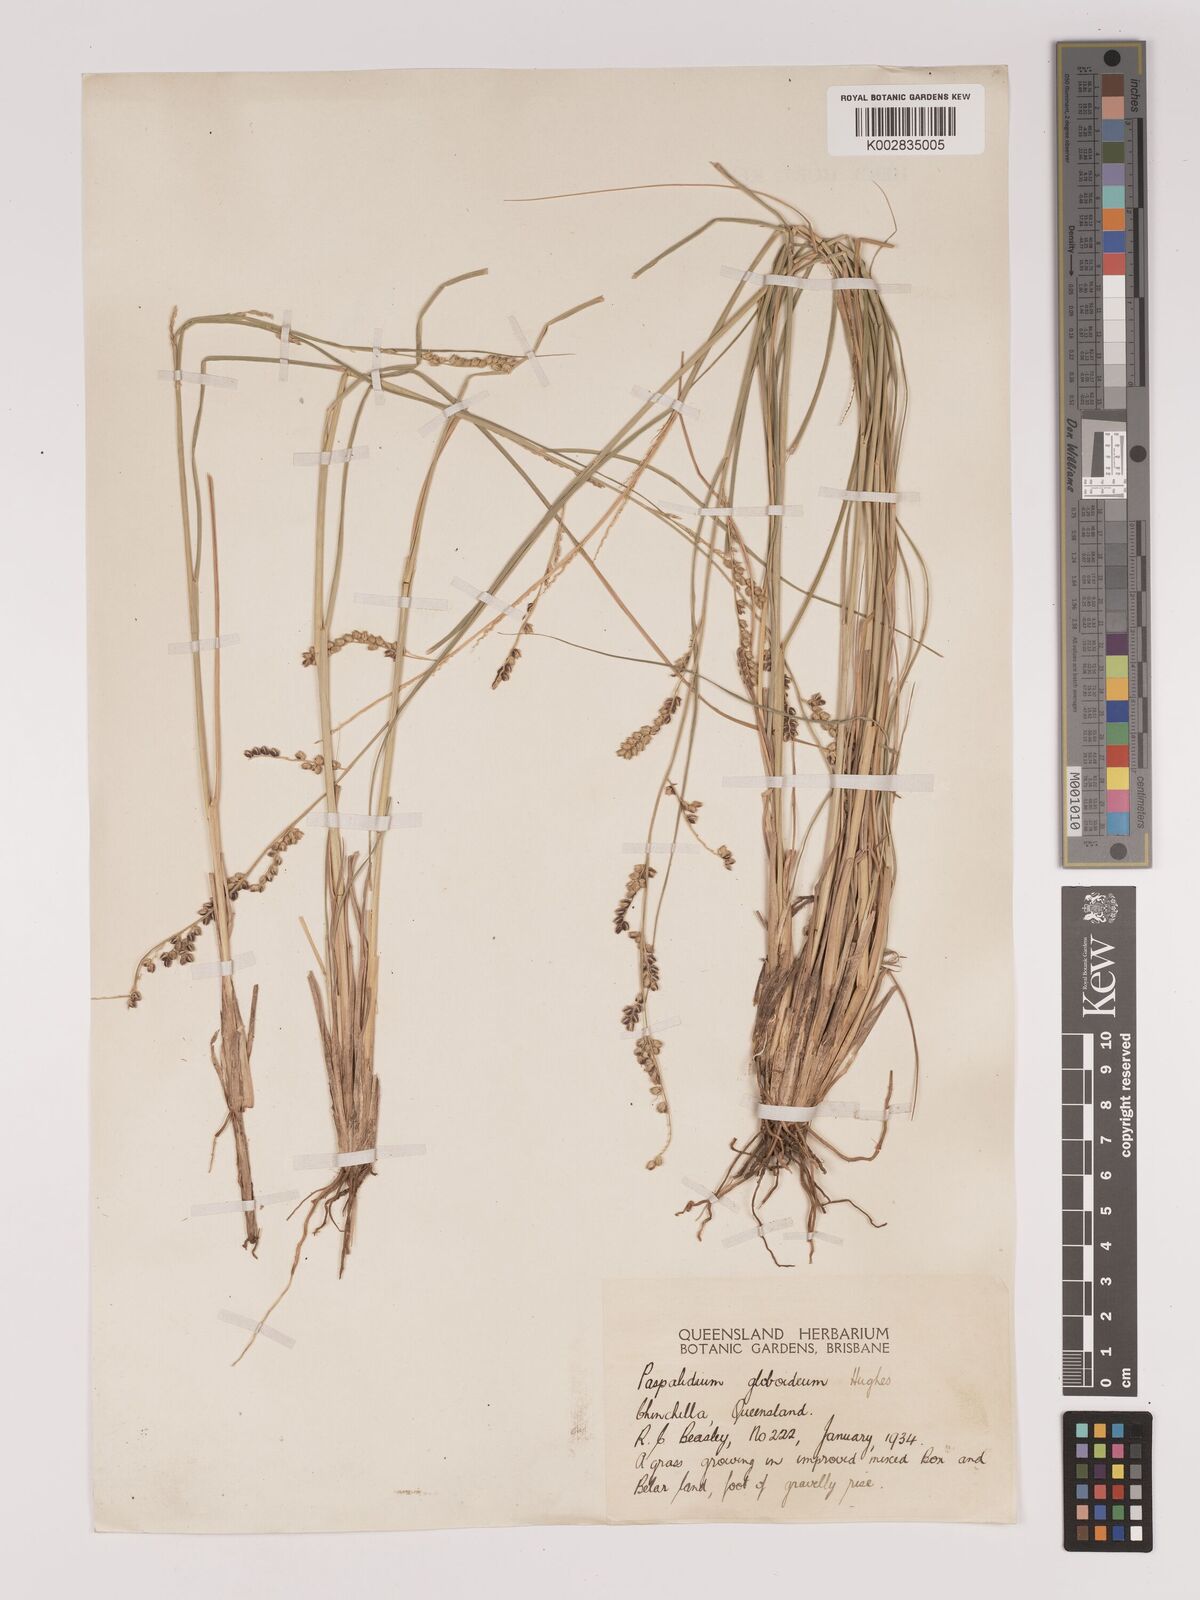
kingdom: Plantae
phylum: Tracheophyta
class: Liliopsida
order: Poales
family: Poaceae
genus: Setaria
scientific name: Setaria
